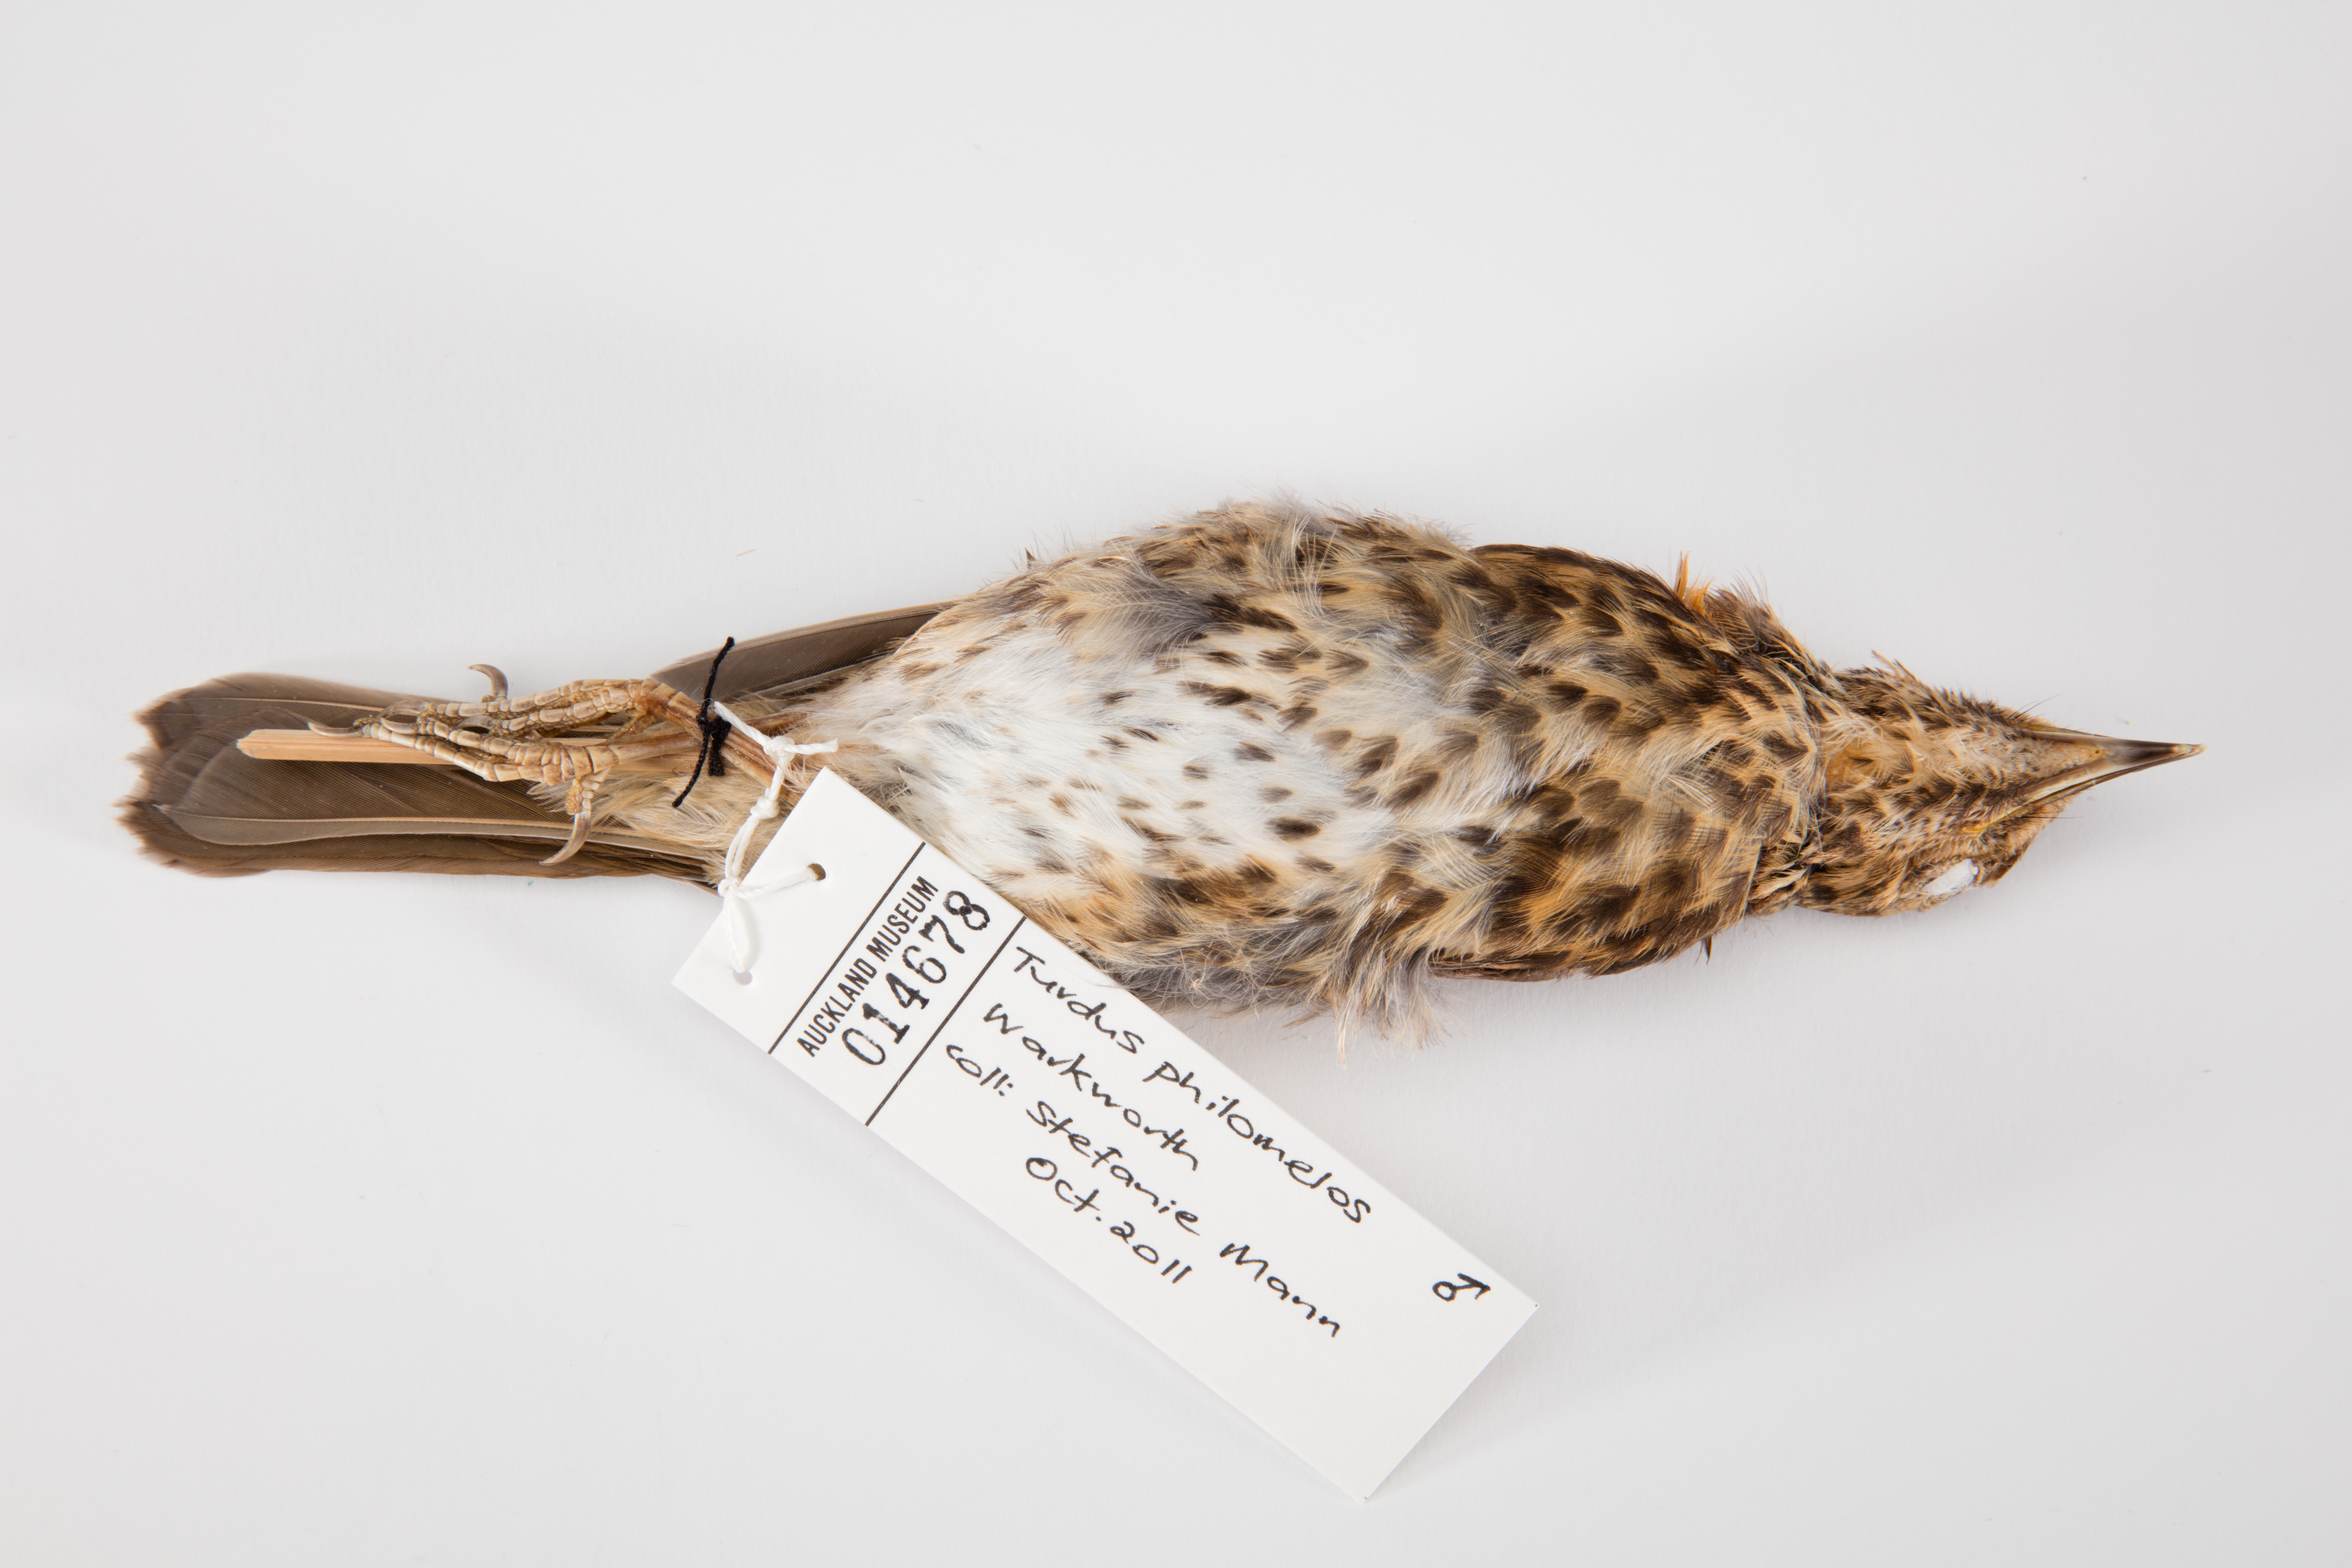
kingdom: Animalia
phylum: Chordata
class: Aves
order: Passeriformes
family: Turdidae
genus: Turdus
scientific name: Turdus philomelos
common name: Song thrush
